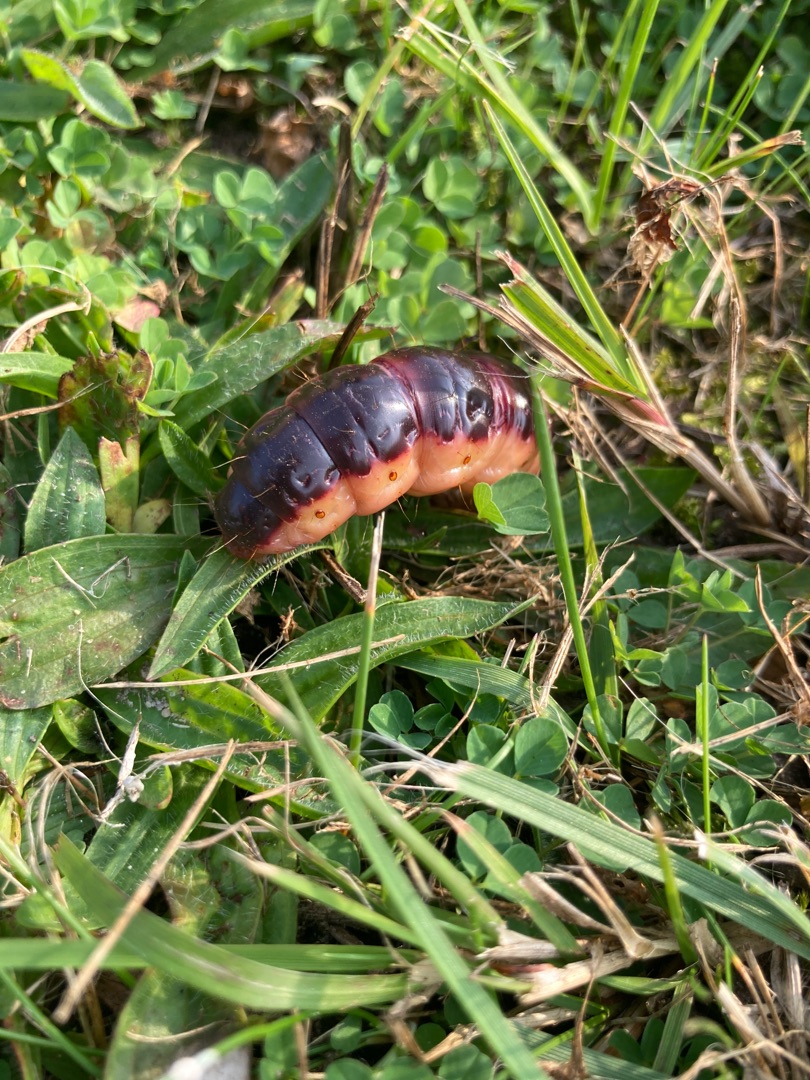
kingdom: Animalia
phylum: Arthropoda
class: Insecta
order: Lepidoptera
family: Cossidae
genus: Cossus
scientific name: Cossus cossus
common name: Pileborer
